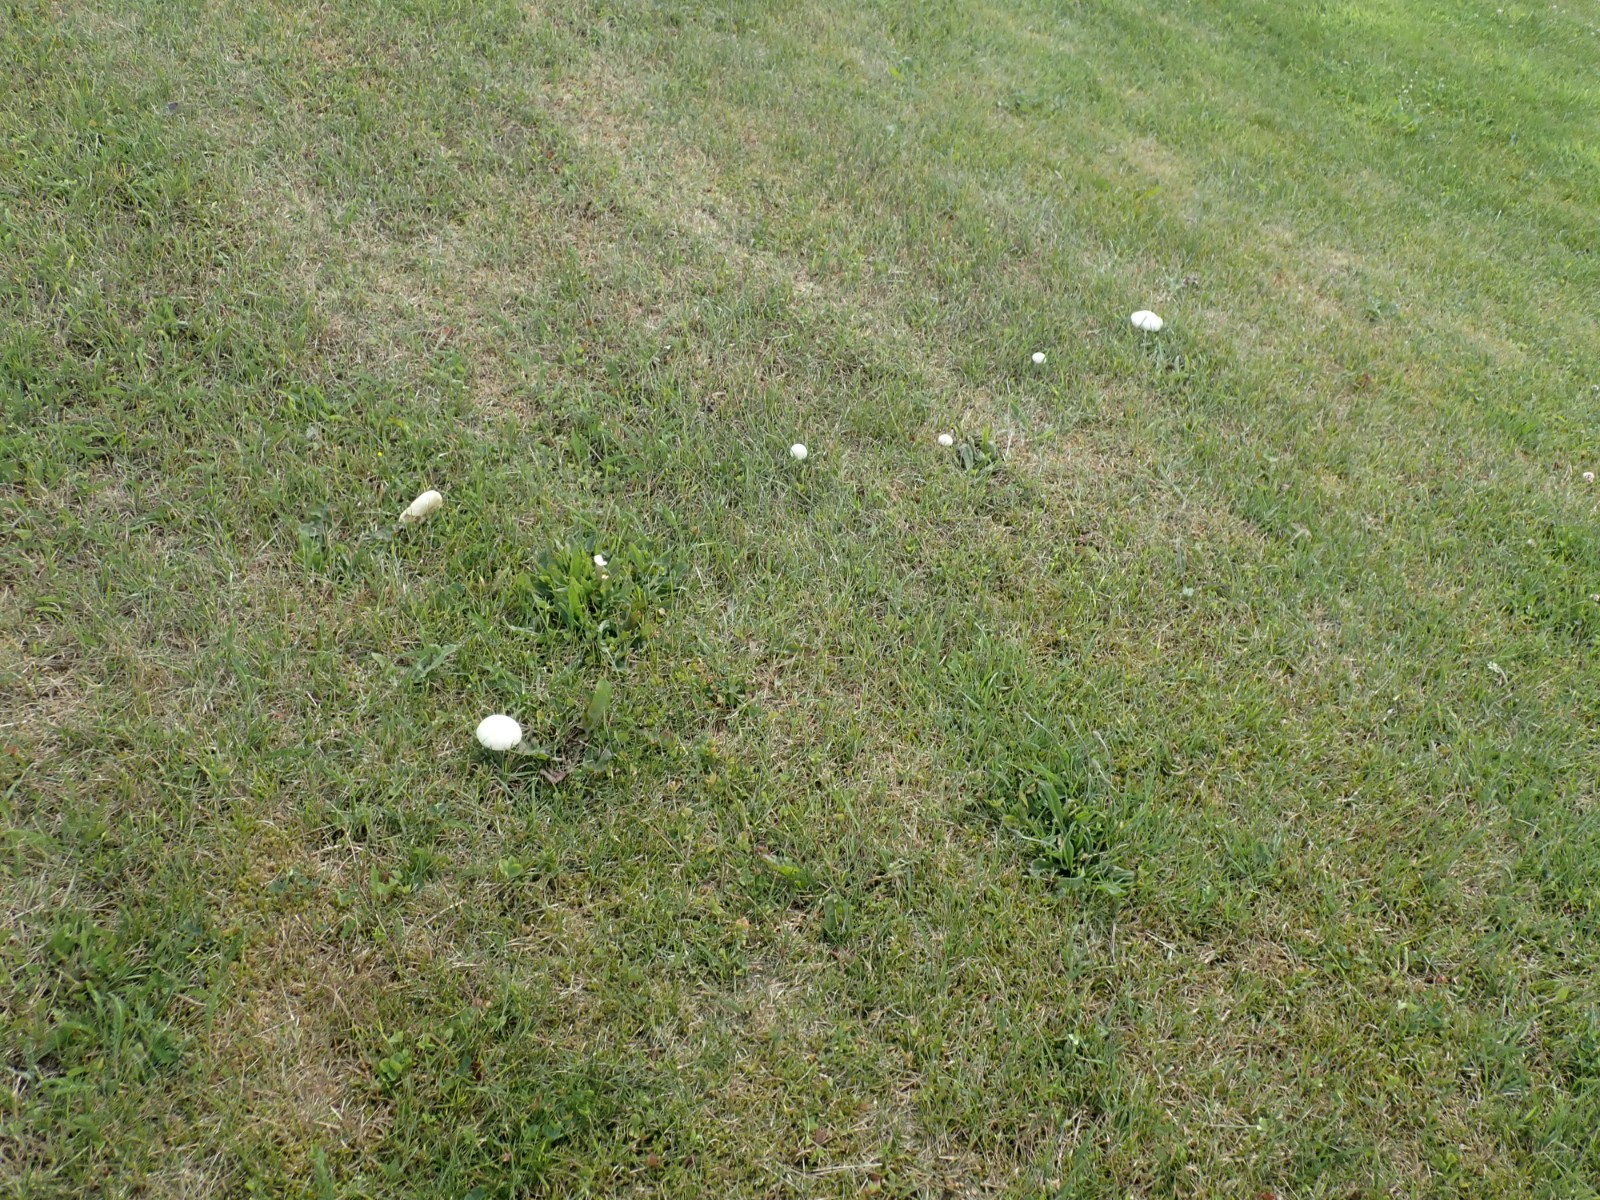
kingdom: Fungi
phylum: Basidiomycota
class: Agaricomycetes
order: Agaricales
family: Strophariaceae
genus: Agrocybe
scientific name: Agrocybe dura
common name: fastkødet agerhat
